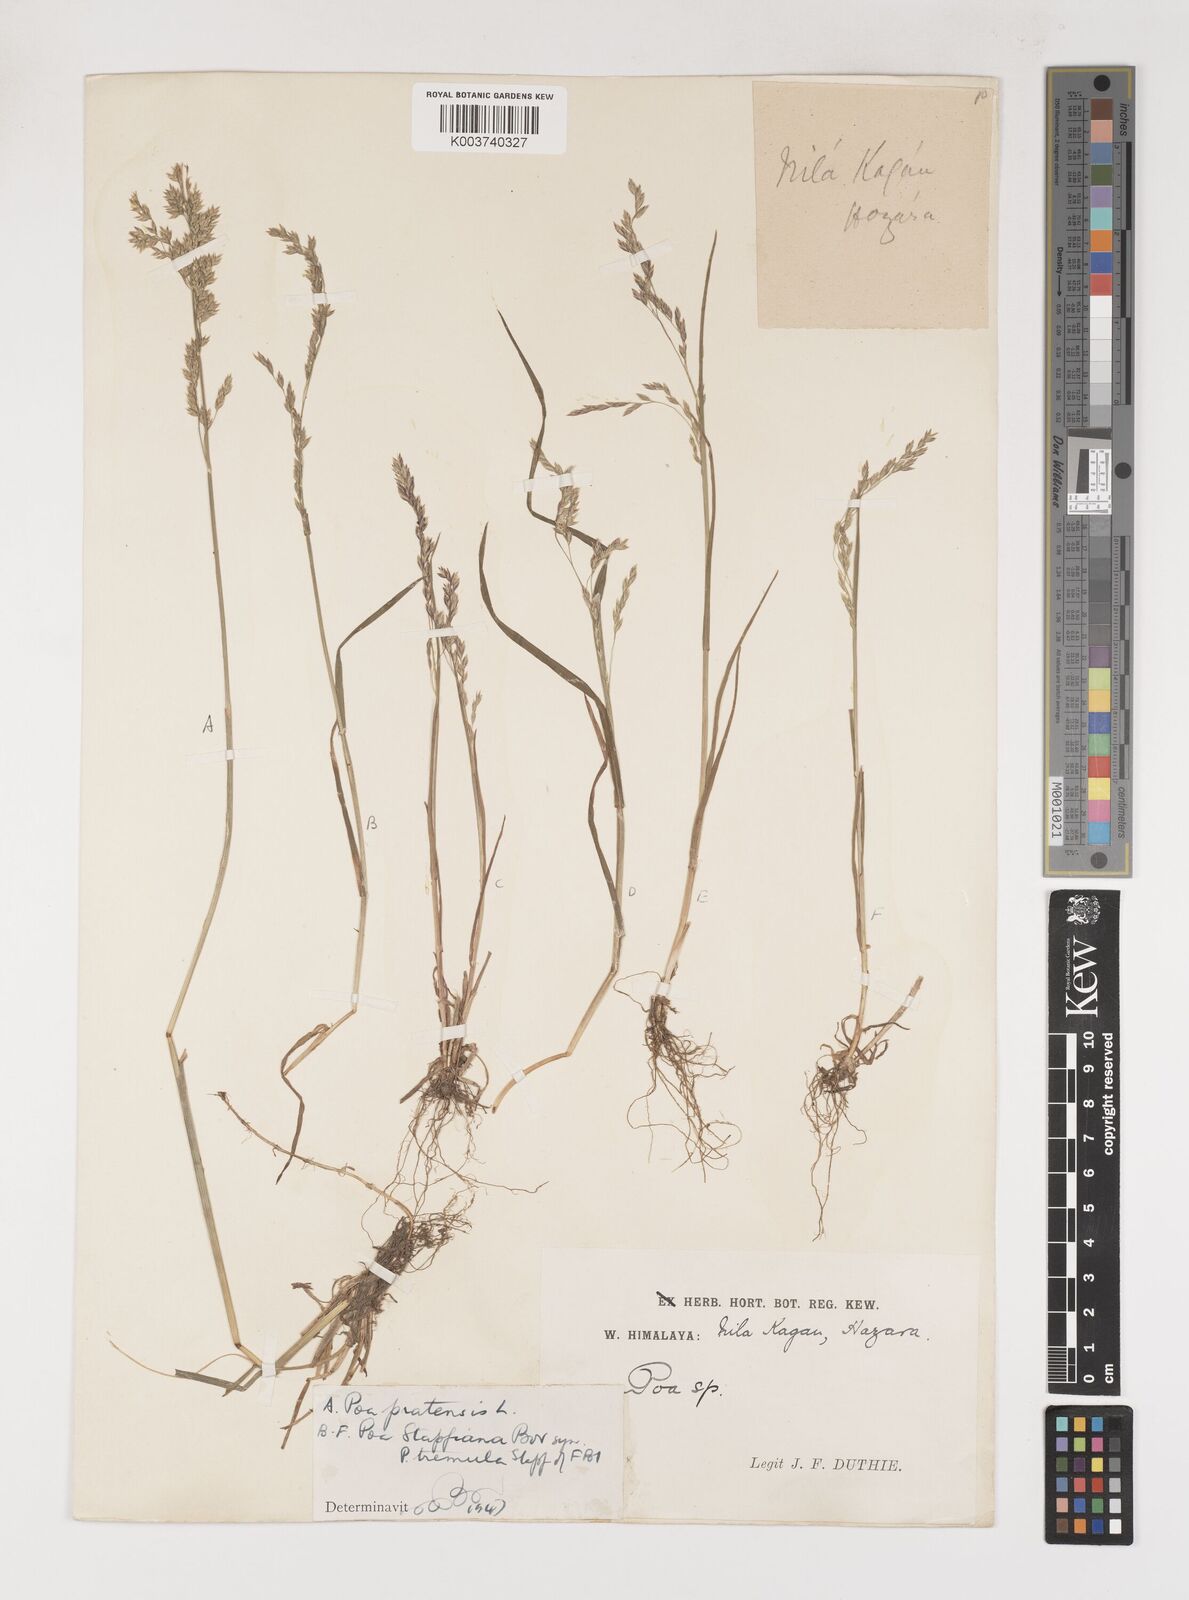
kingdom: Plantae
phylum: Tracheophyta
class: Liliopsida
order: Poales
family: Poaceae
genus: Poa
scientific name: Poa stapfiana
